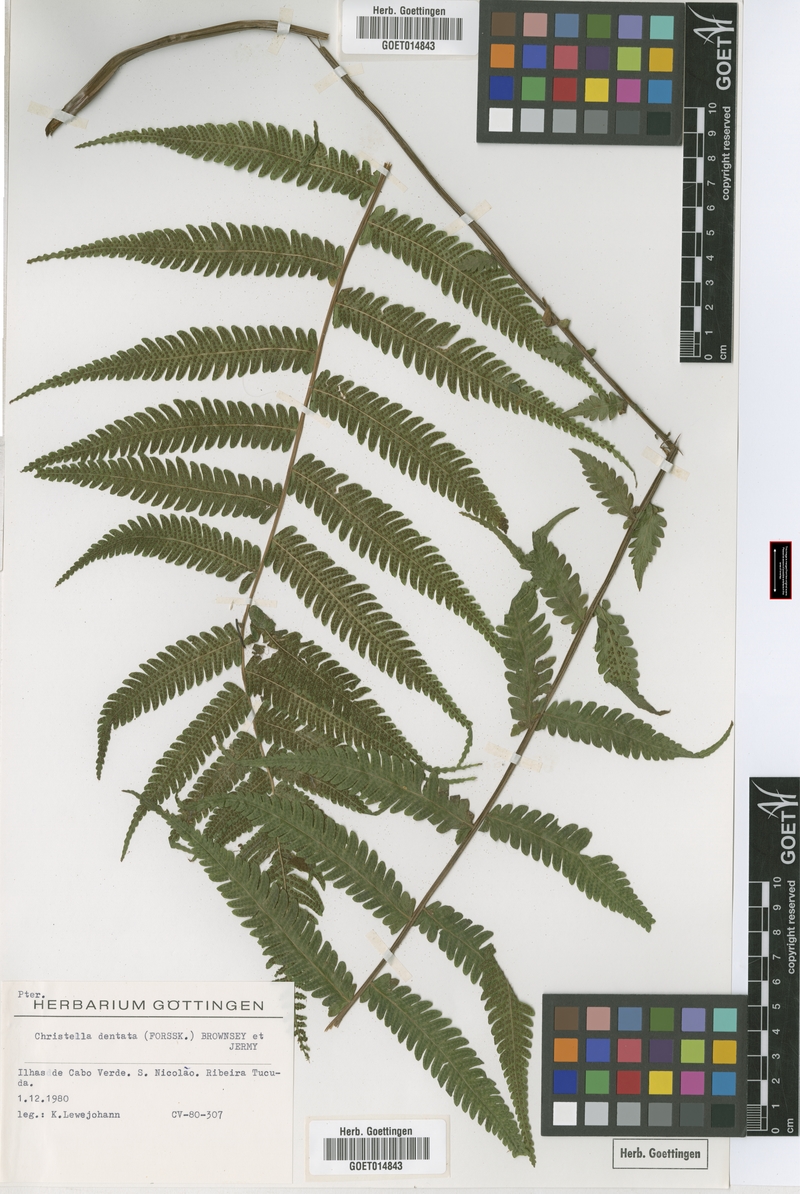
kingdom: Plantae
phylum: Tracheophyta
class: Polypodiopsida
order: Polypodiales
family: Thelypteridaceae
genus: Christella
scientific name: Christella dentata
